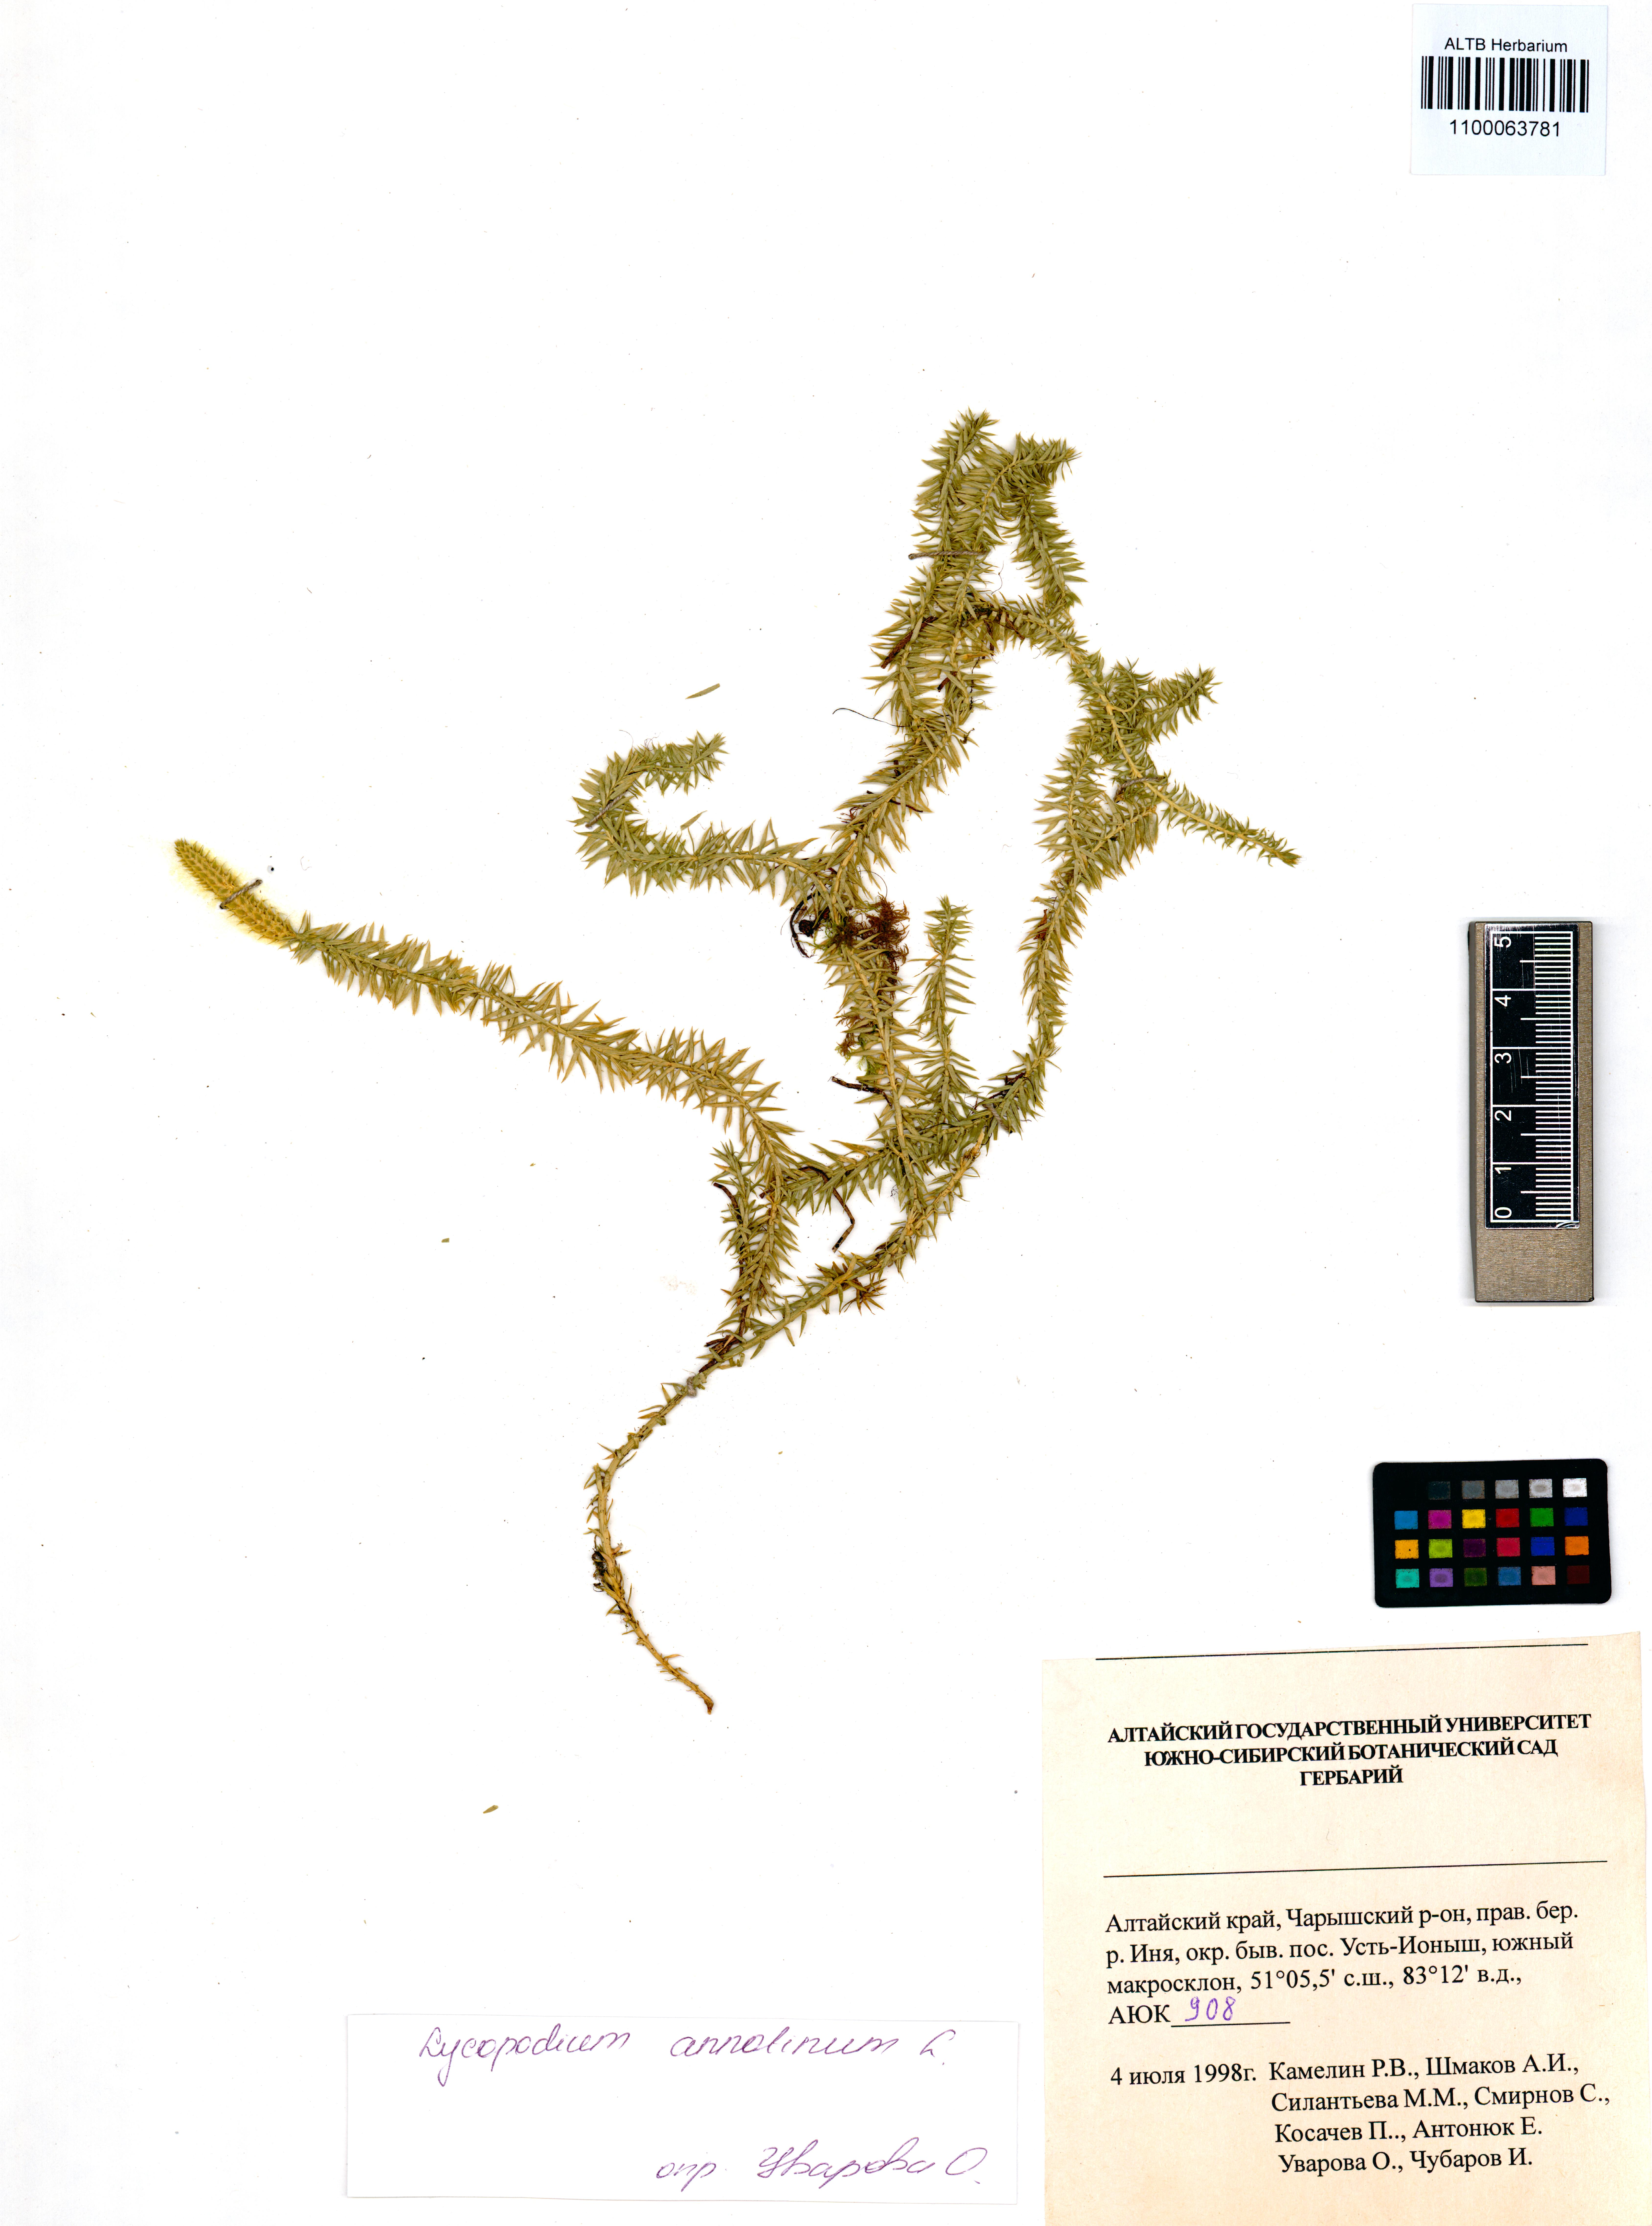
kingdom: Plantae
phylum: Tracheophyta
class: Lycopodiopsida
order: Lycopodiales
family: Lycopodiaceae
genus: Spinulum
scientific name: Spinulum annotinum
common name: Interrupted club-moss
